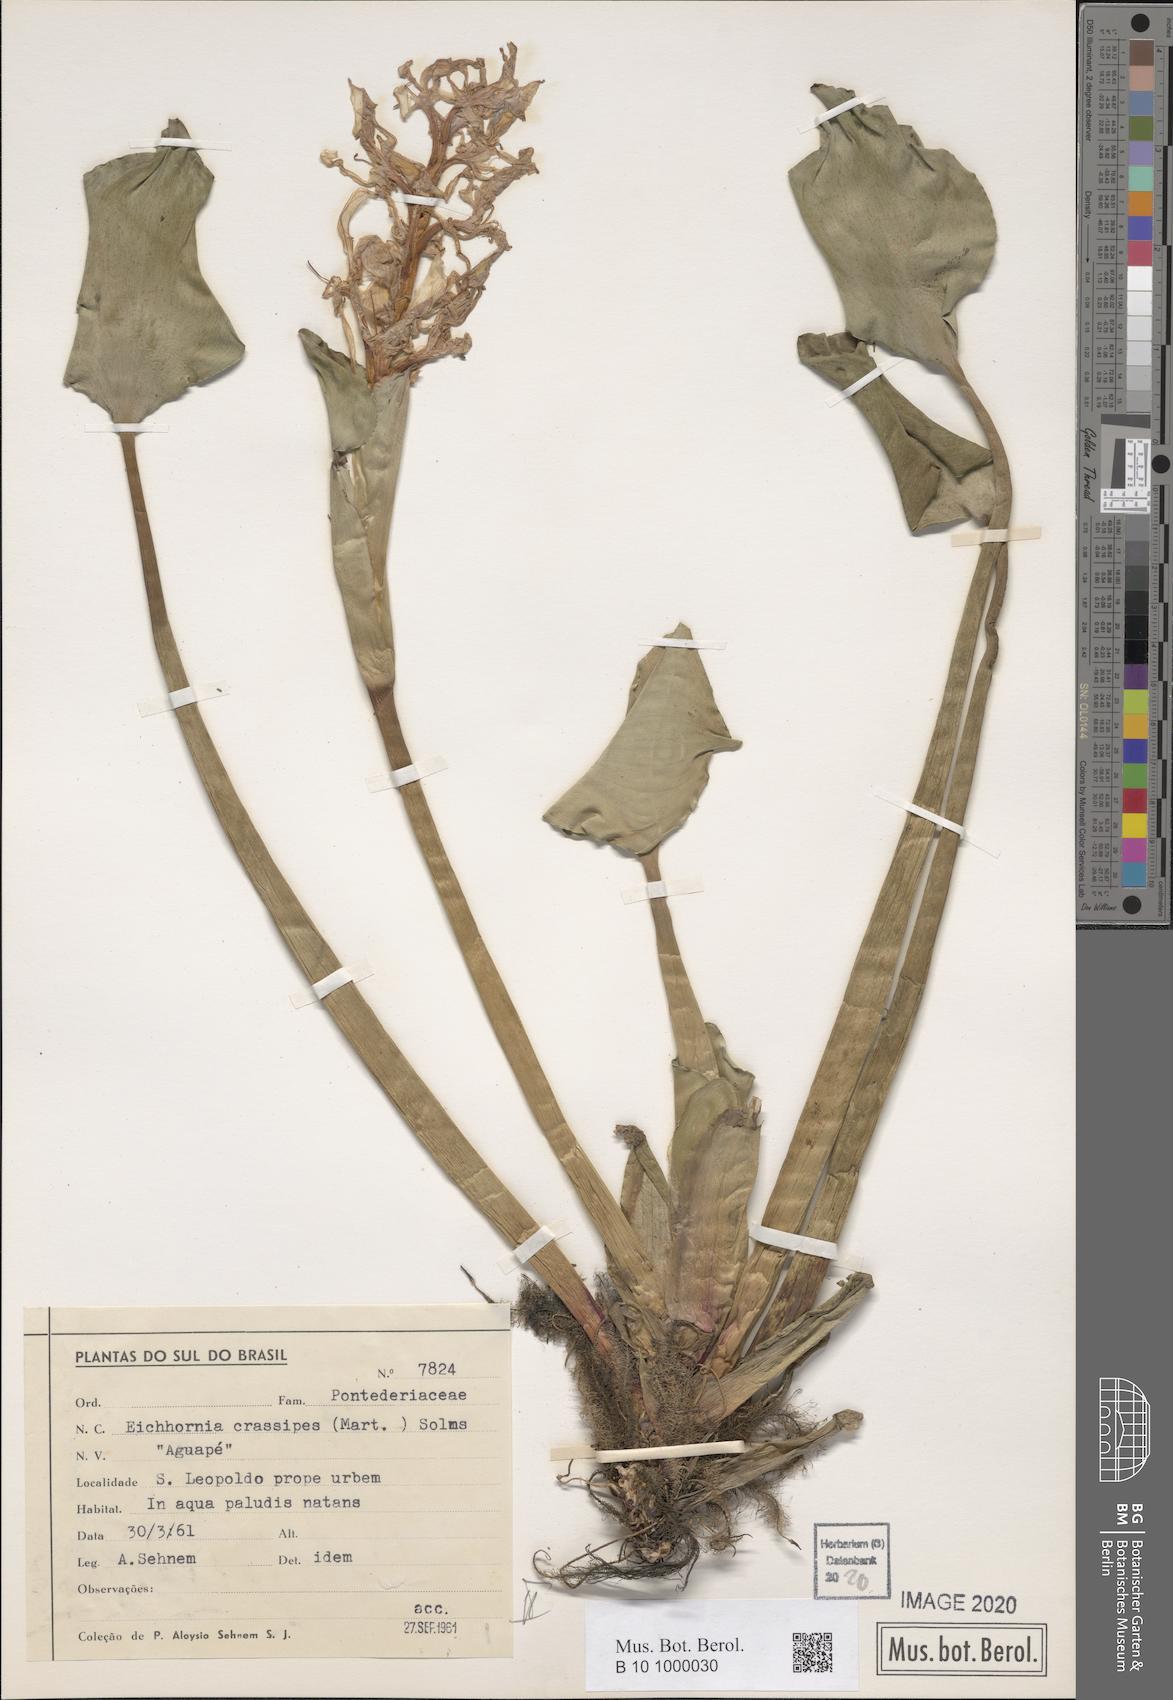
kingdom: Plantae
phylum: Tracheophyta
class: Liliopsida
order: Commelinales
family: Pontederiaceae
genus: Pontederia
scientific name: Pontederia crassipes
